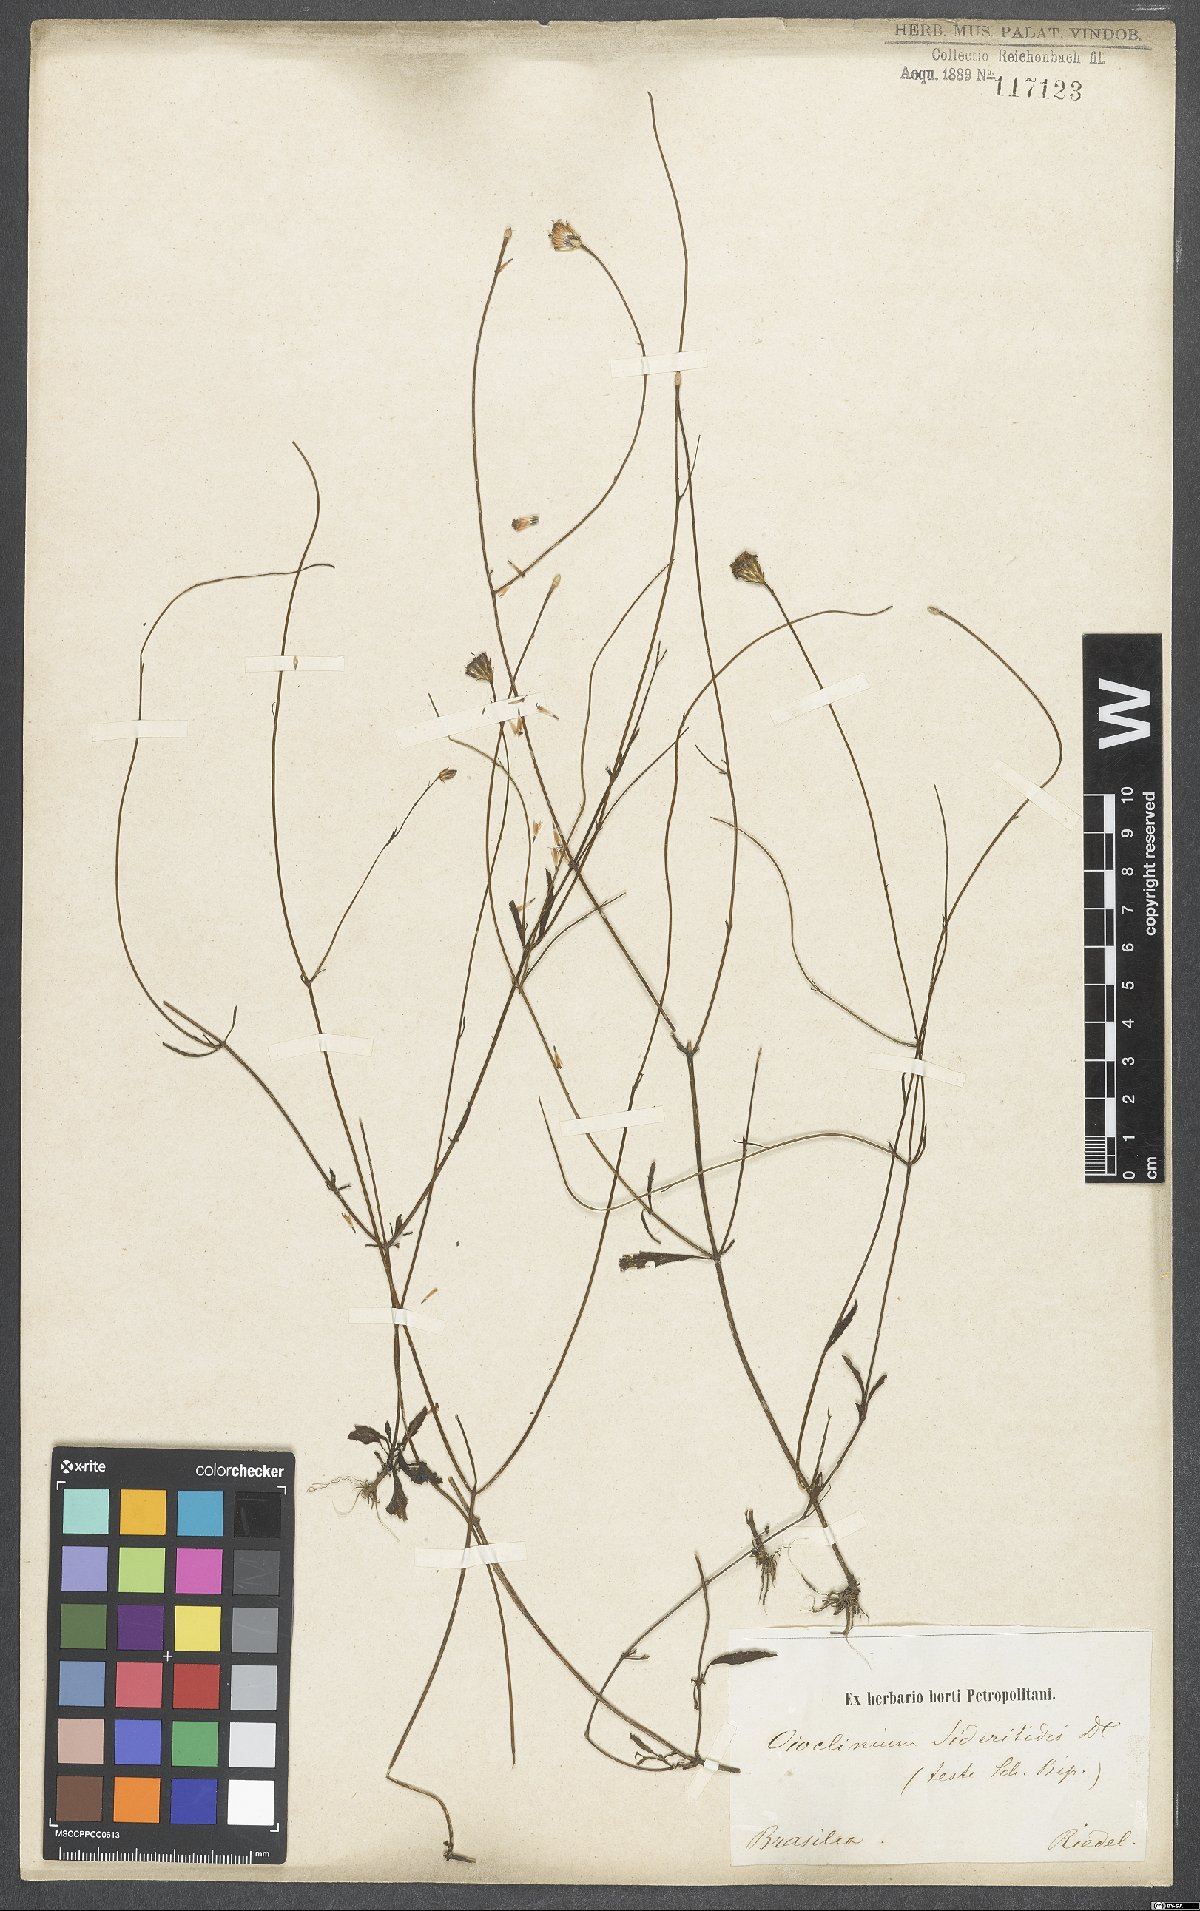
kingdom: Plantae
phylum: Tracheophyta
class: Magnoliopsida
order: Asterales
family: Asteraceae
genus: Ageratina
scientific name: Ageratina altissima
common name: White snakeroot
